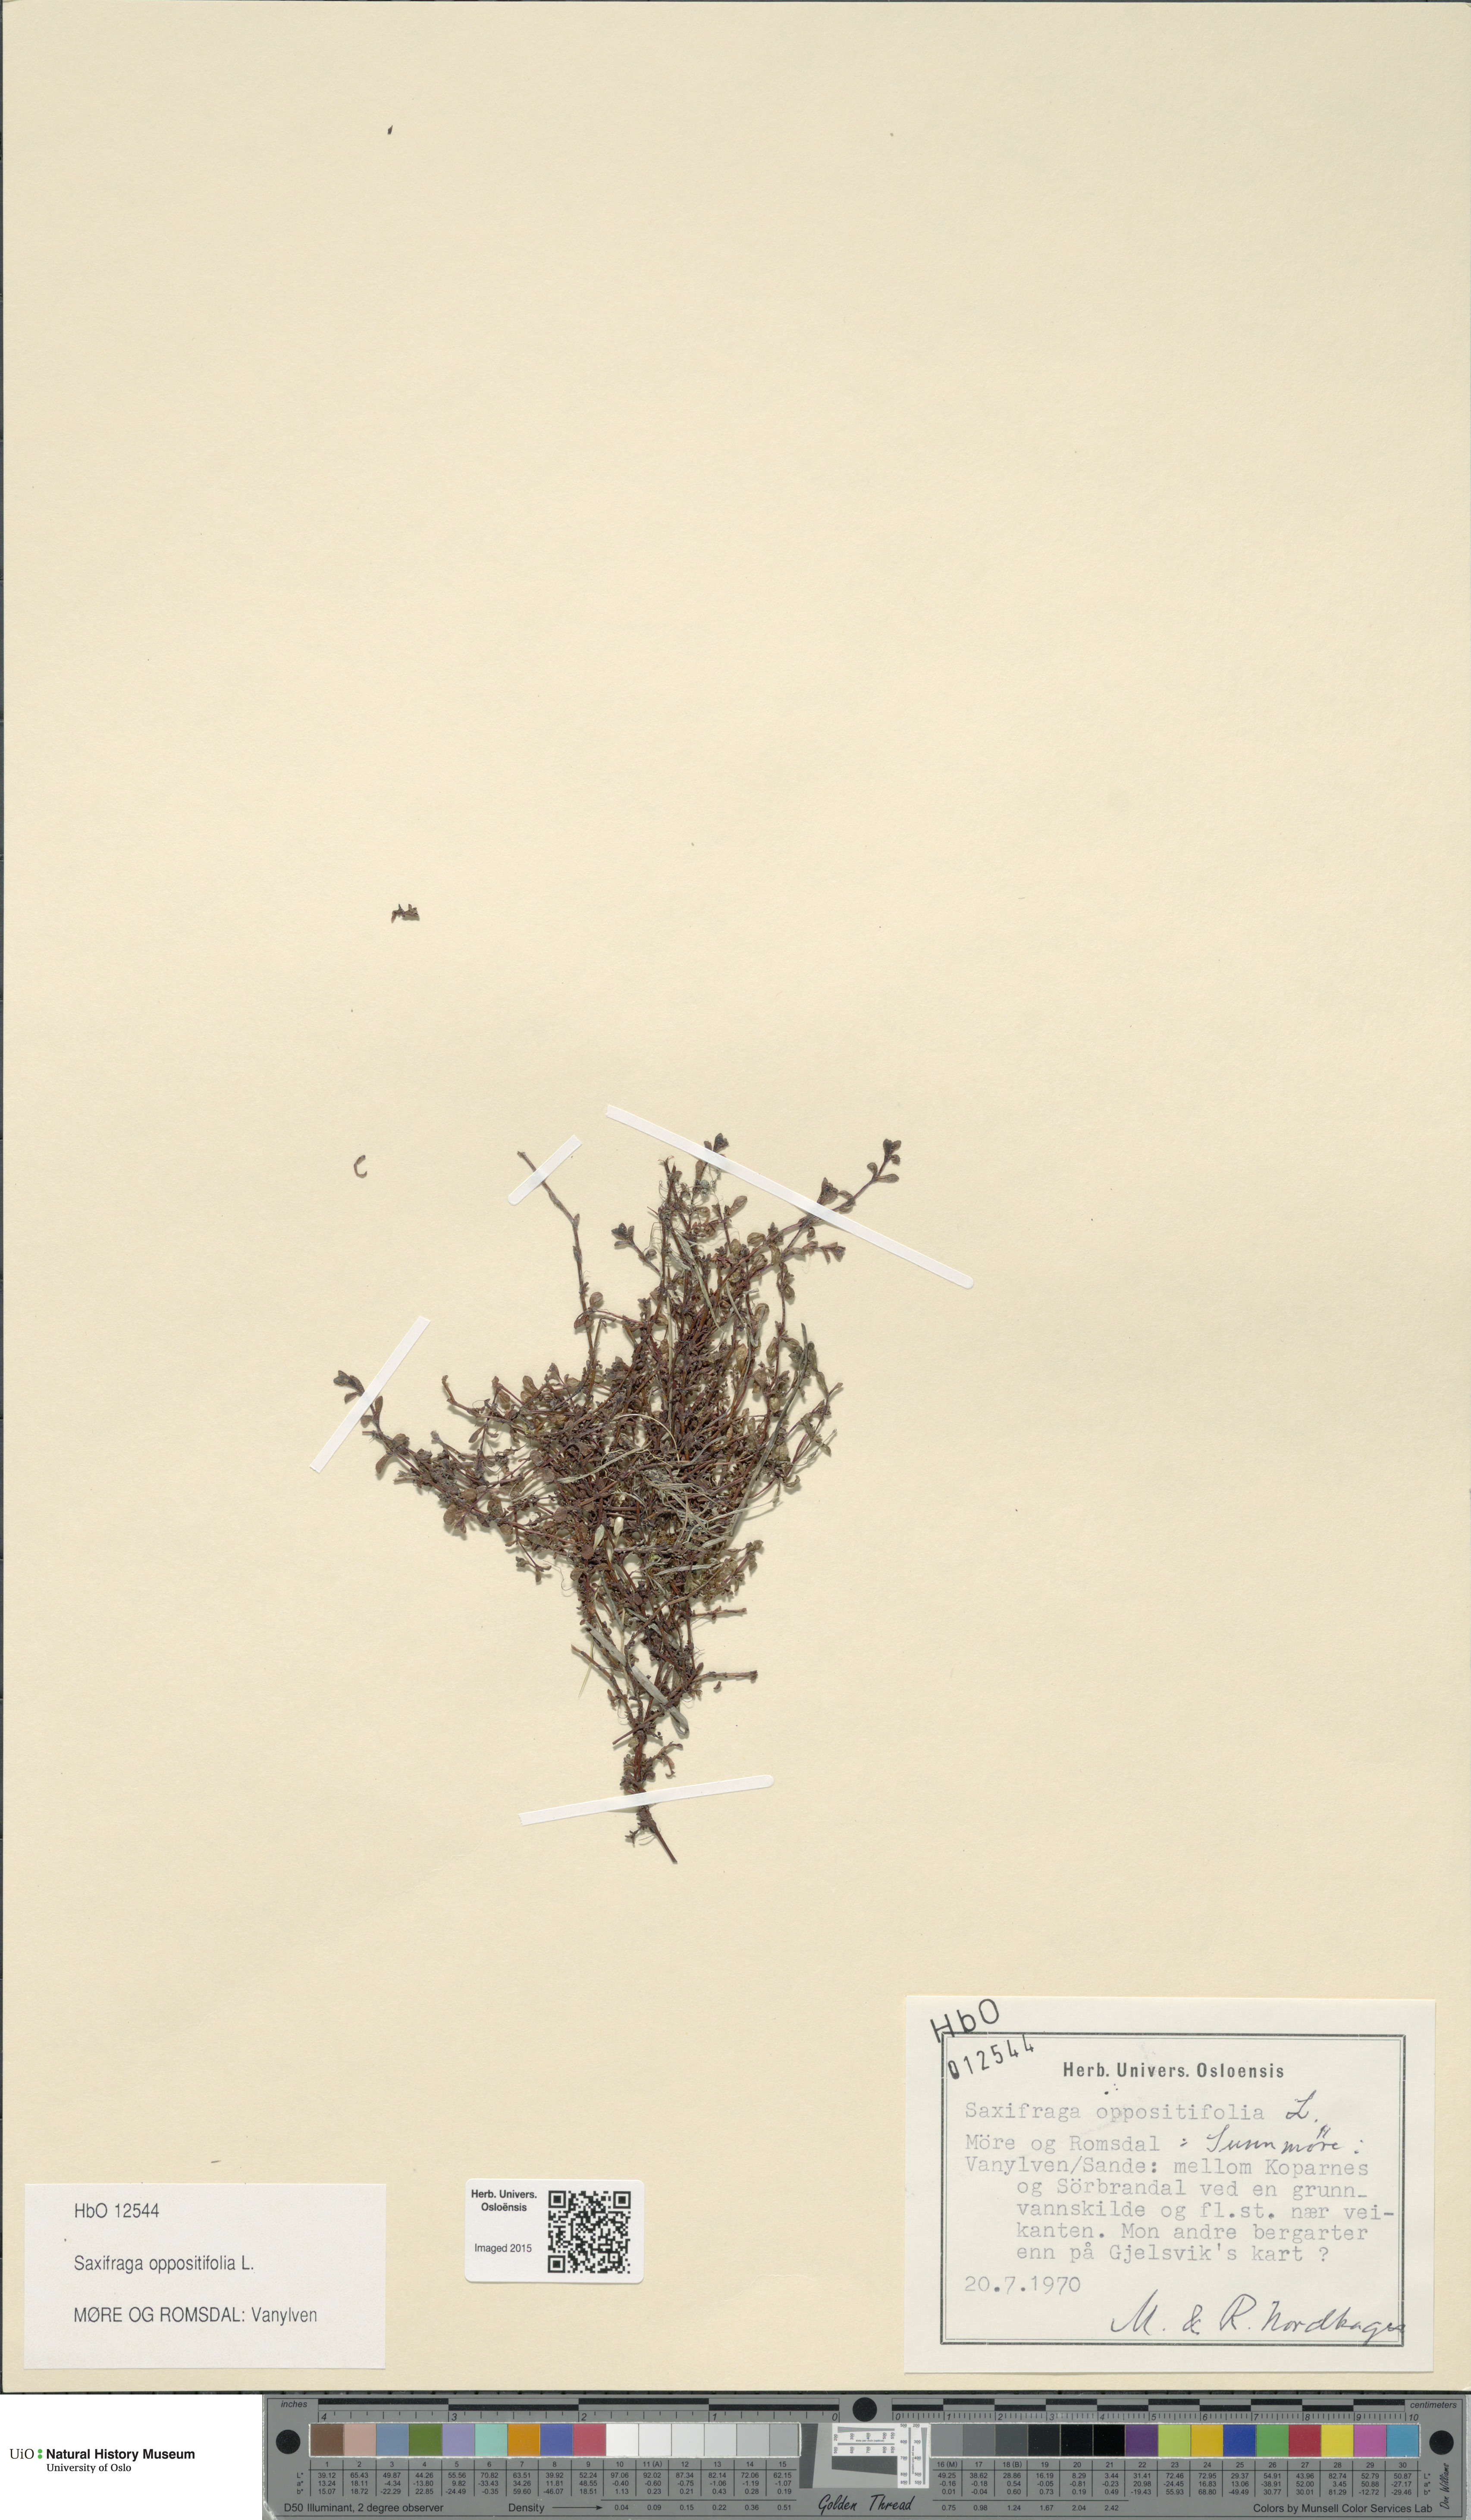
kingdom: Plantae
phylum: Tracheophyta
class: Magnoliopsida
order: Saxifragales
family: Saxifragaceae
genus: Saxifraga
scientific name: Saxifraga oppositifolia
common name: Purple saxifrage
